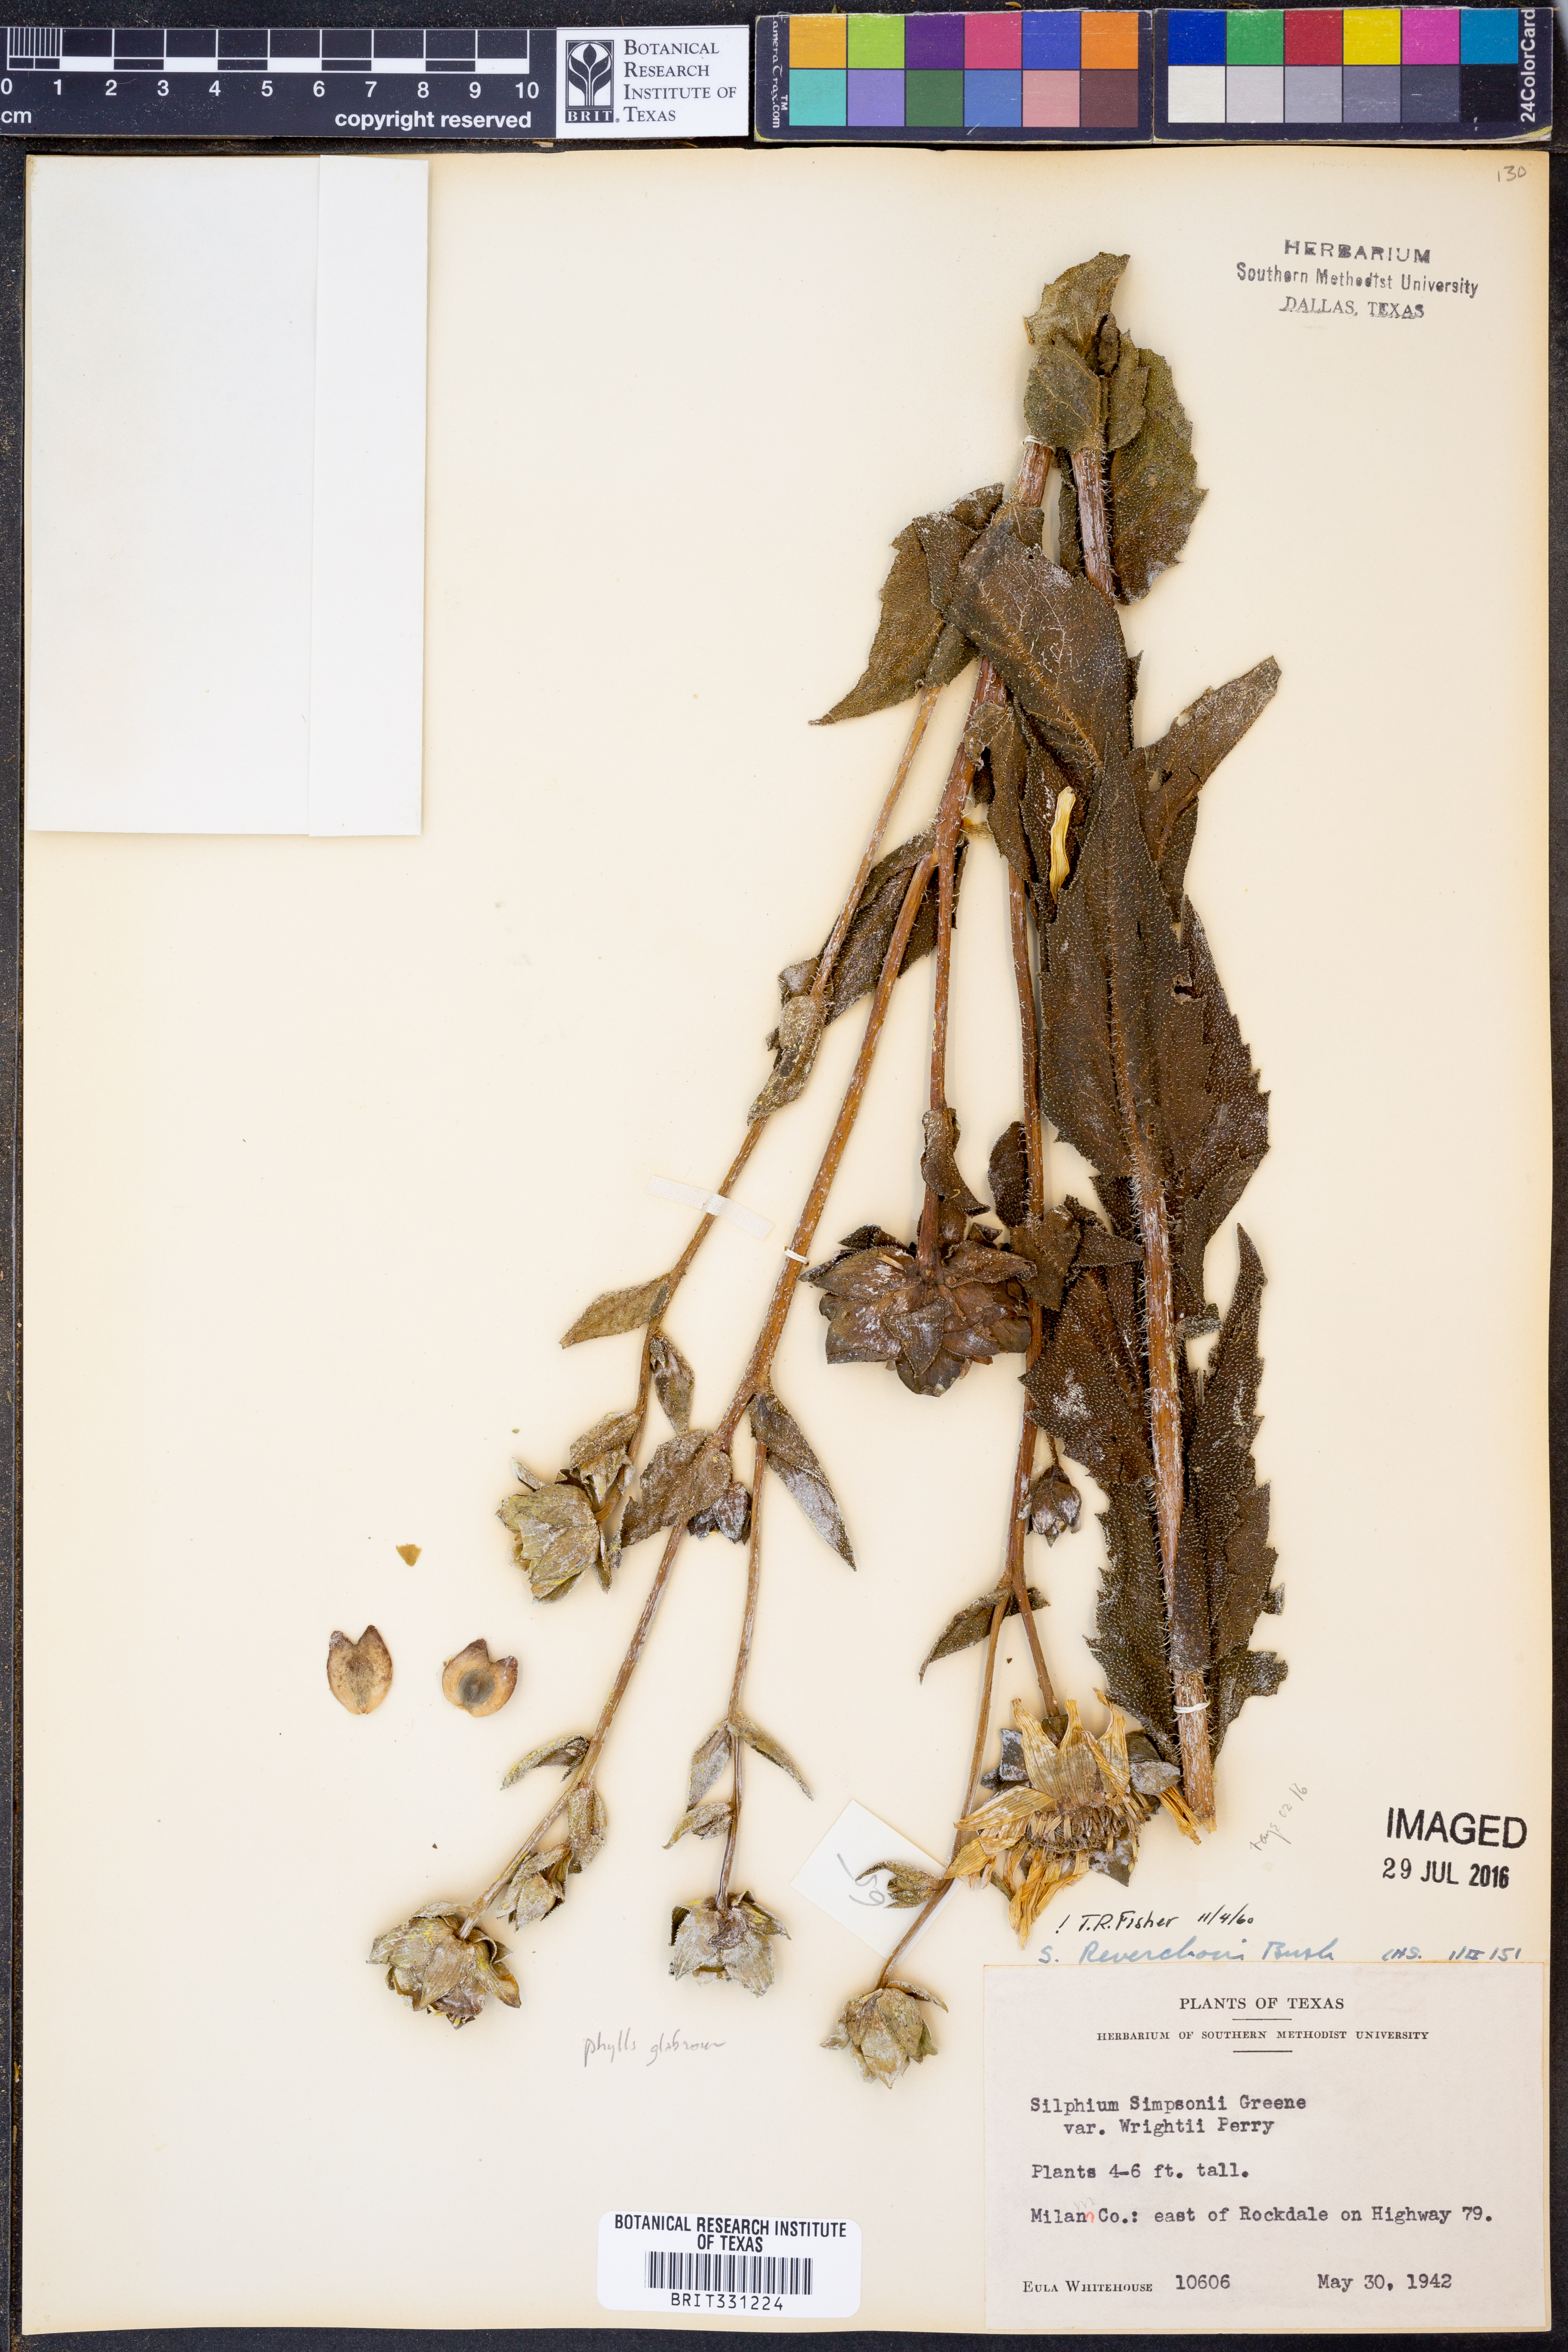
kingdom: Plantae
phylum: Tracheophyta
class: Magnoliopsida
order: Asterales
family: Asteraceae
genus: Silphium
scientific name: Silphium radula
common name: Roughleaf rosinweed
